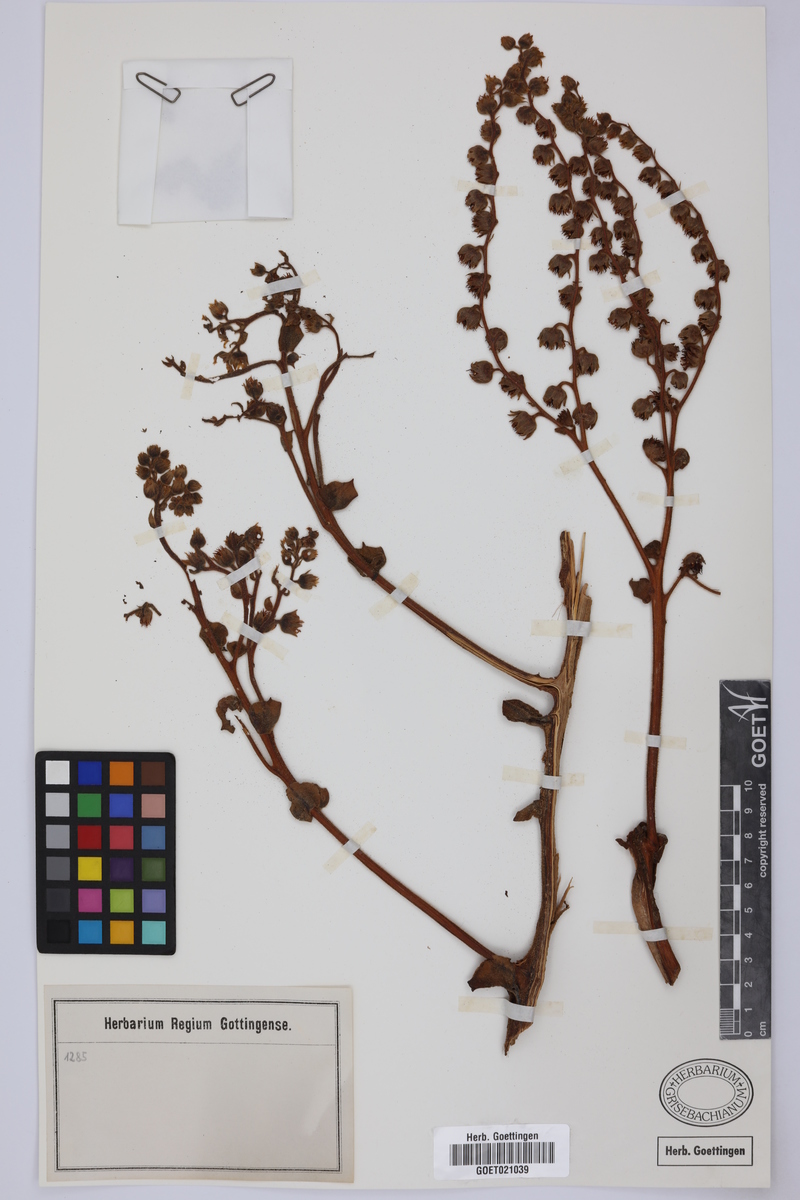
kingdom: Plantae
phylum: Tracheophyta
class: Magnoliopsida
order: Saxifragales
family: Crassulaceae
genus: Aeonium
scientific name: Aeonium canariense
